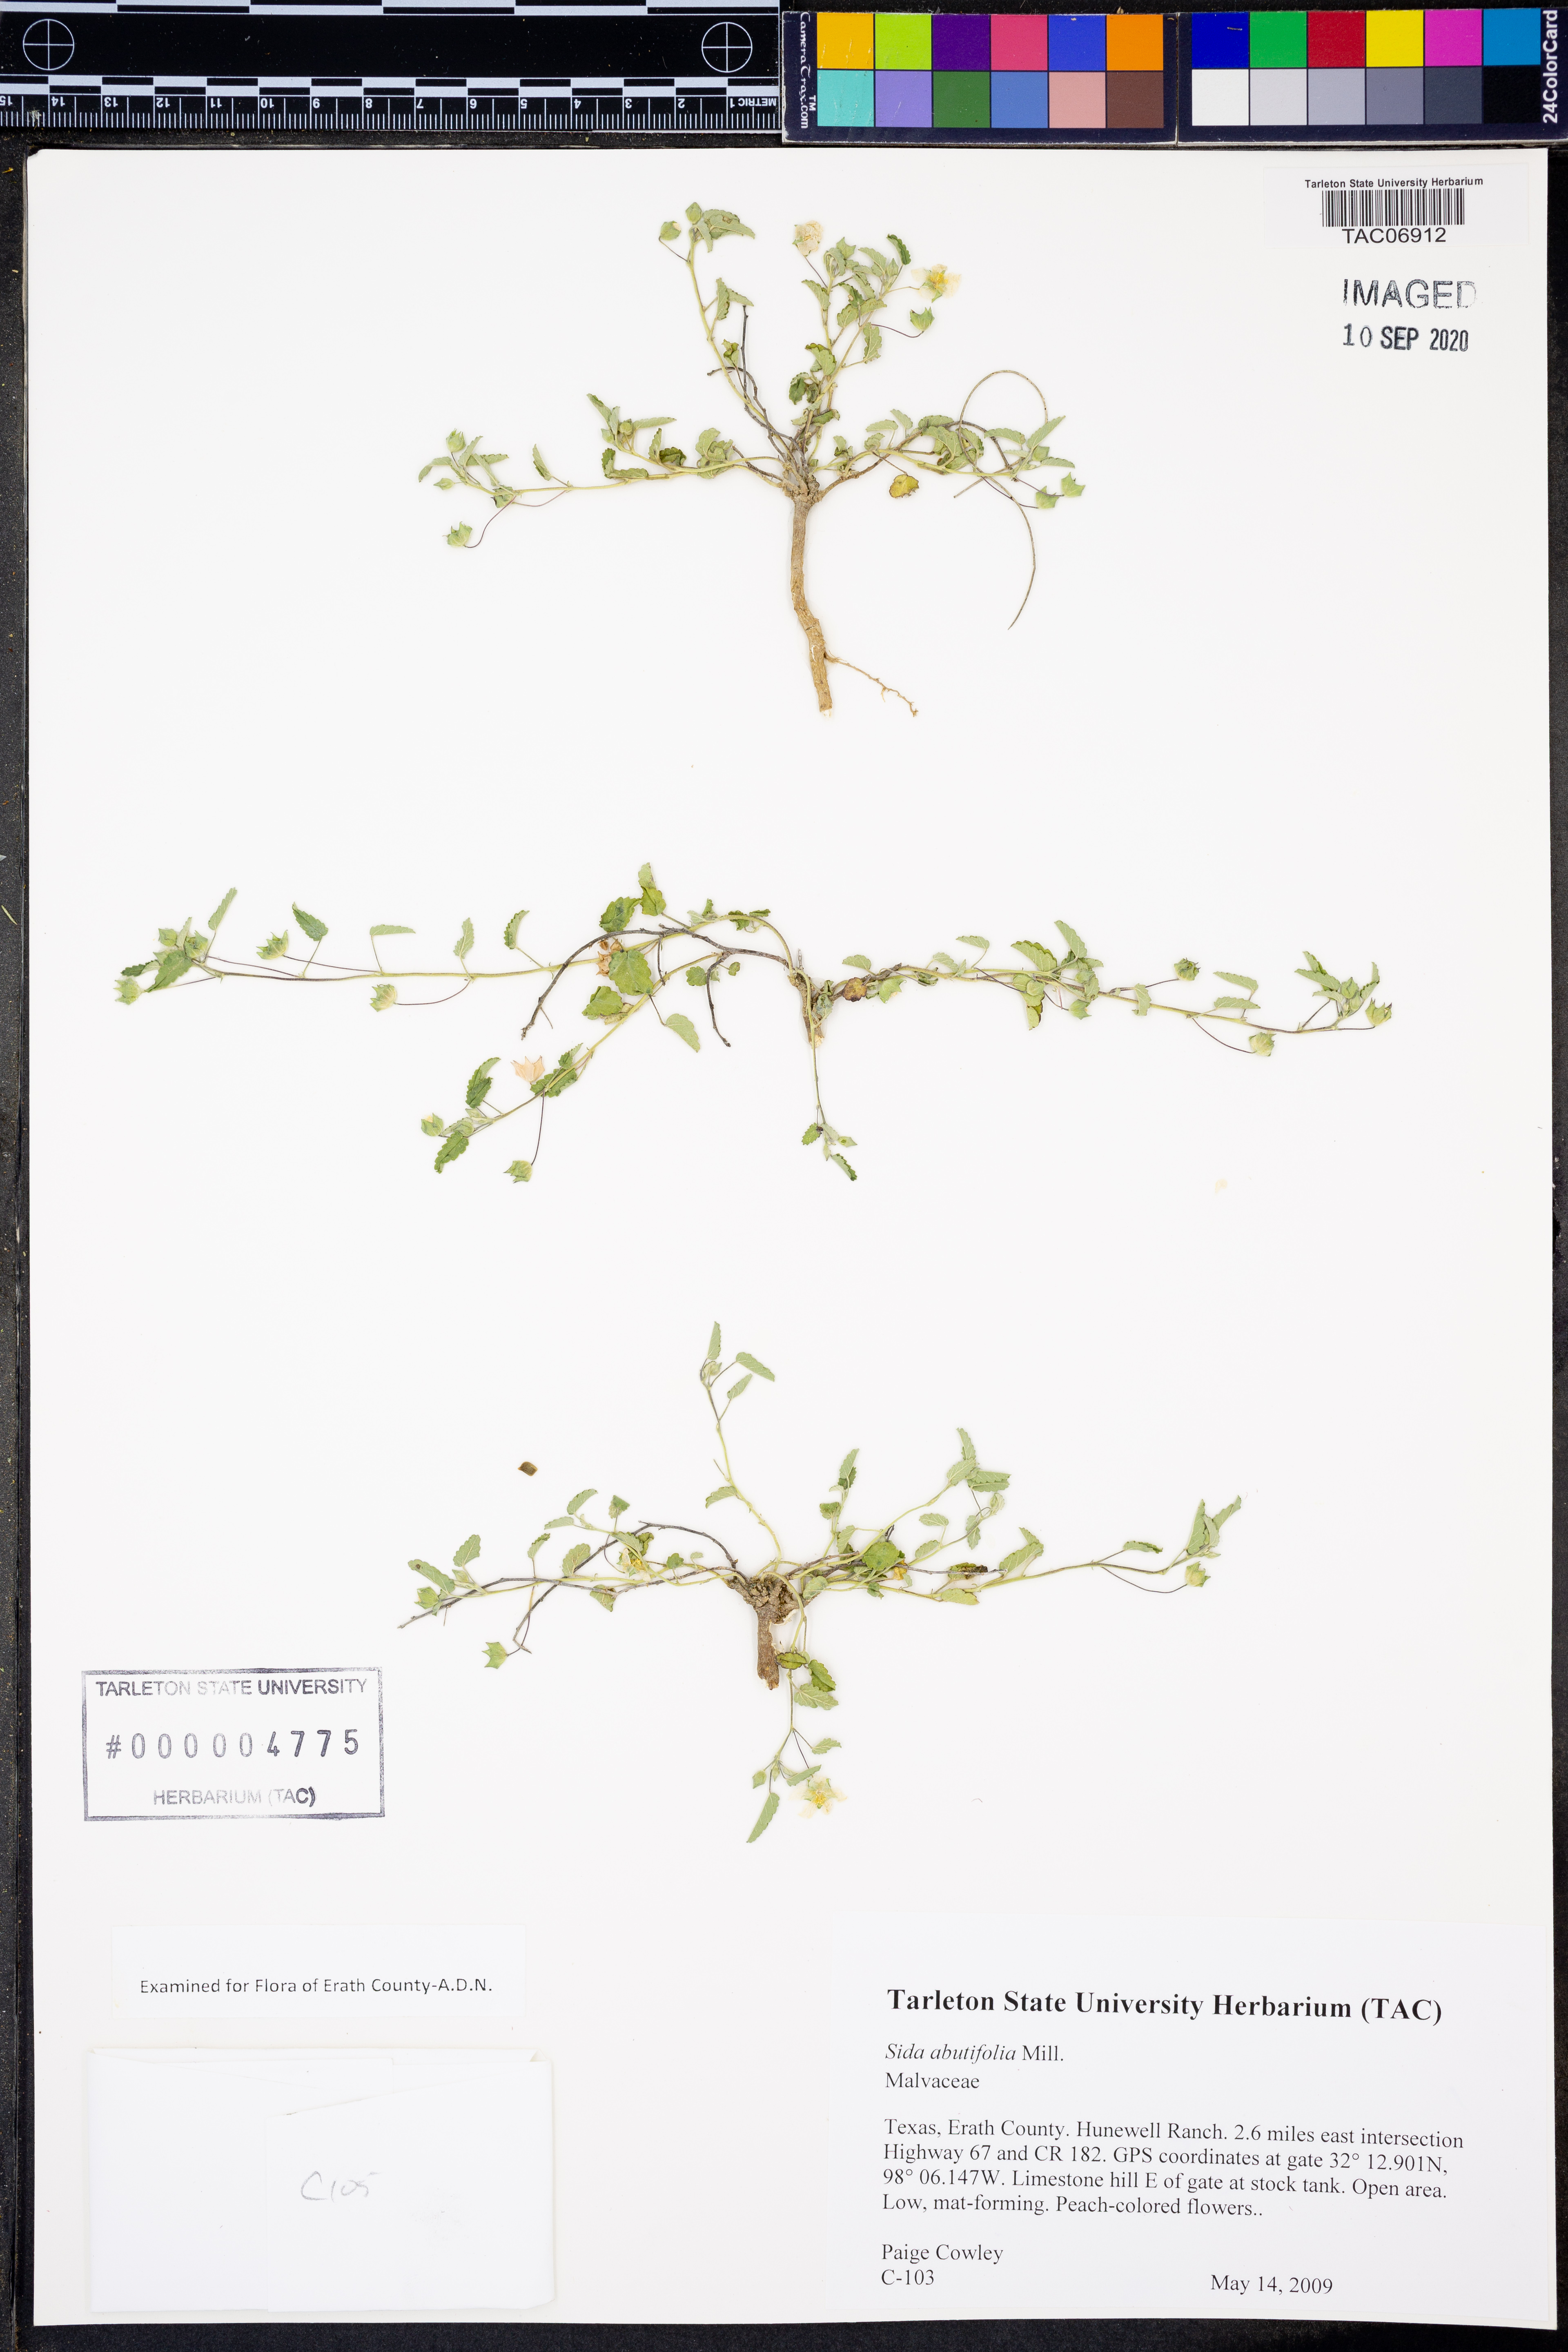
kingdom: Plantae
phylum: Tracheophyta
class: Magnoliopsida
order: Malvales
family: Malvaceae
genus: Sida
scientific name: Sida abutifolia
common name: Spreading fantails
